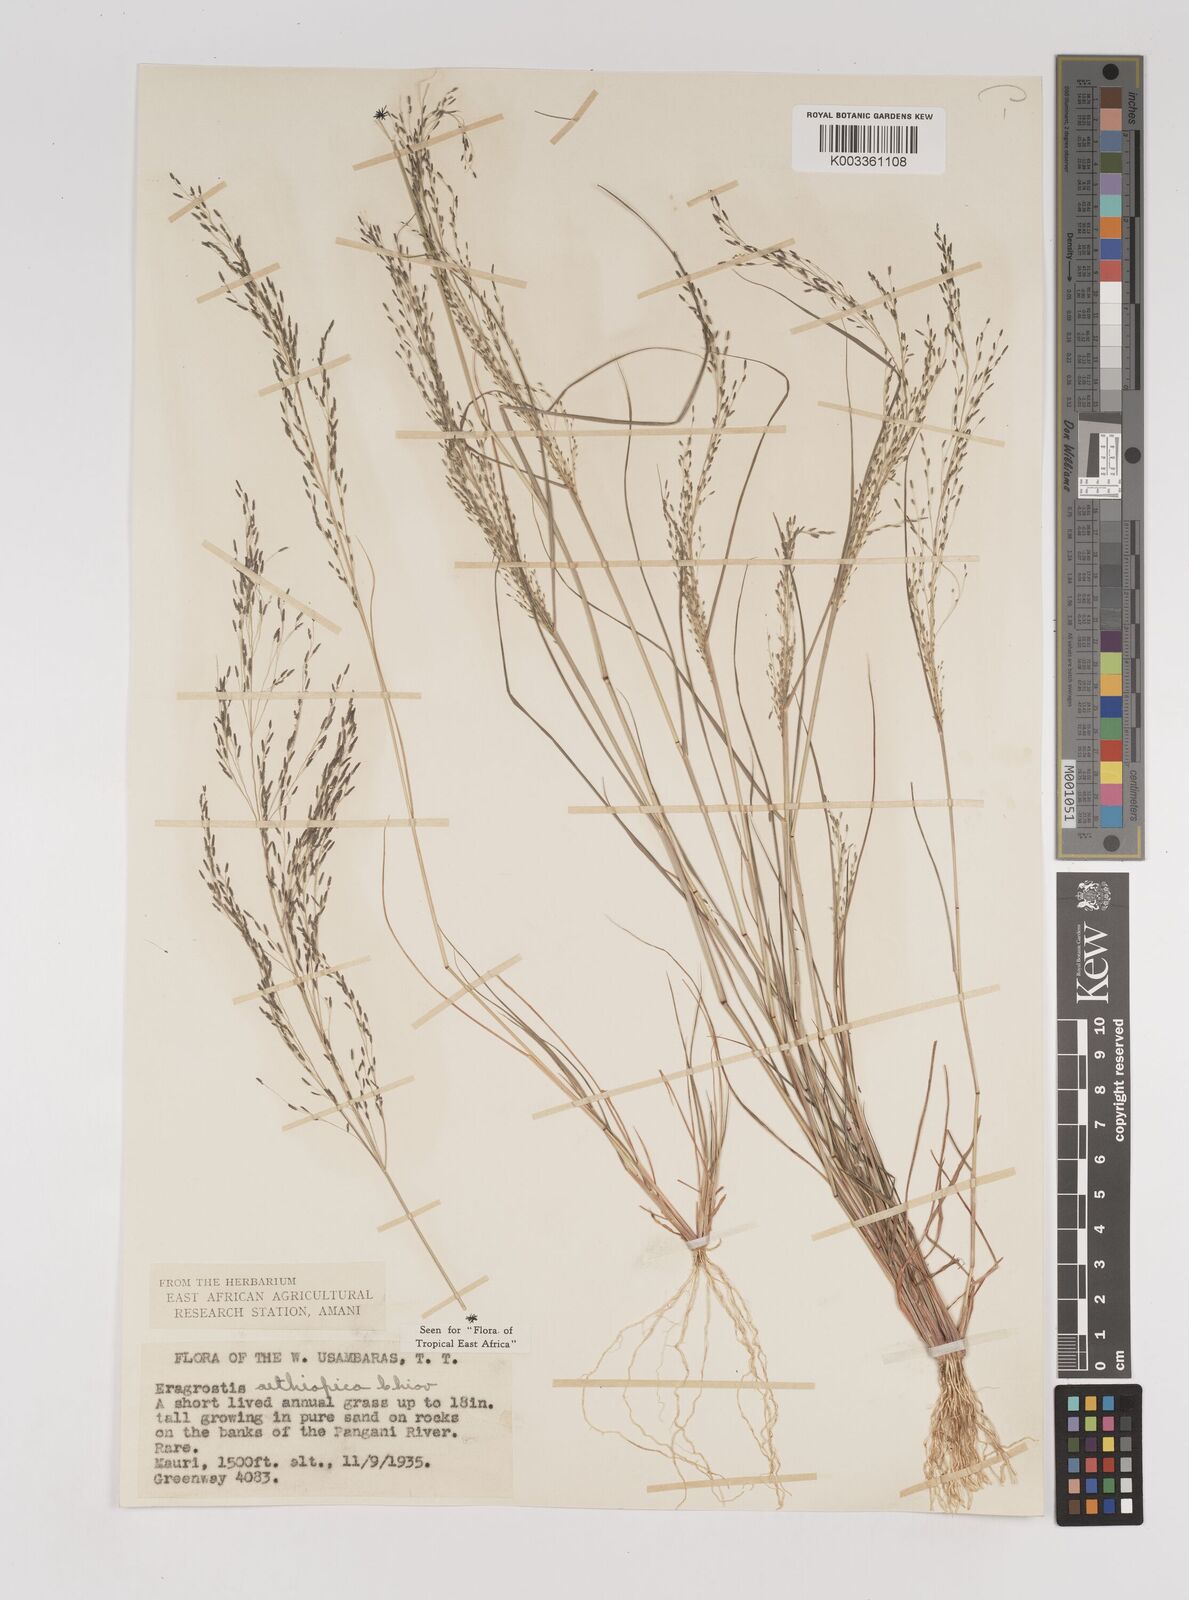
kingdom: Plantae
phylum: Tracheophyta
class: Liliopsida
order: Poales
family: Poaceae
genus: Eragrostis
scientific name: Eragrostis aethiopica
